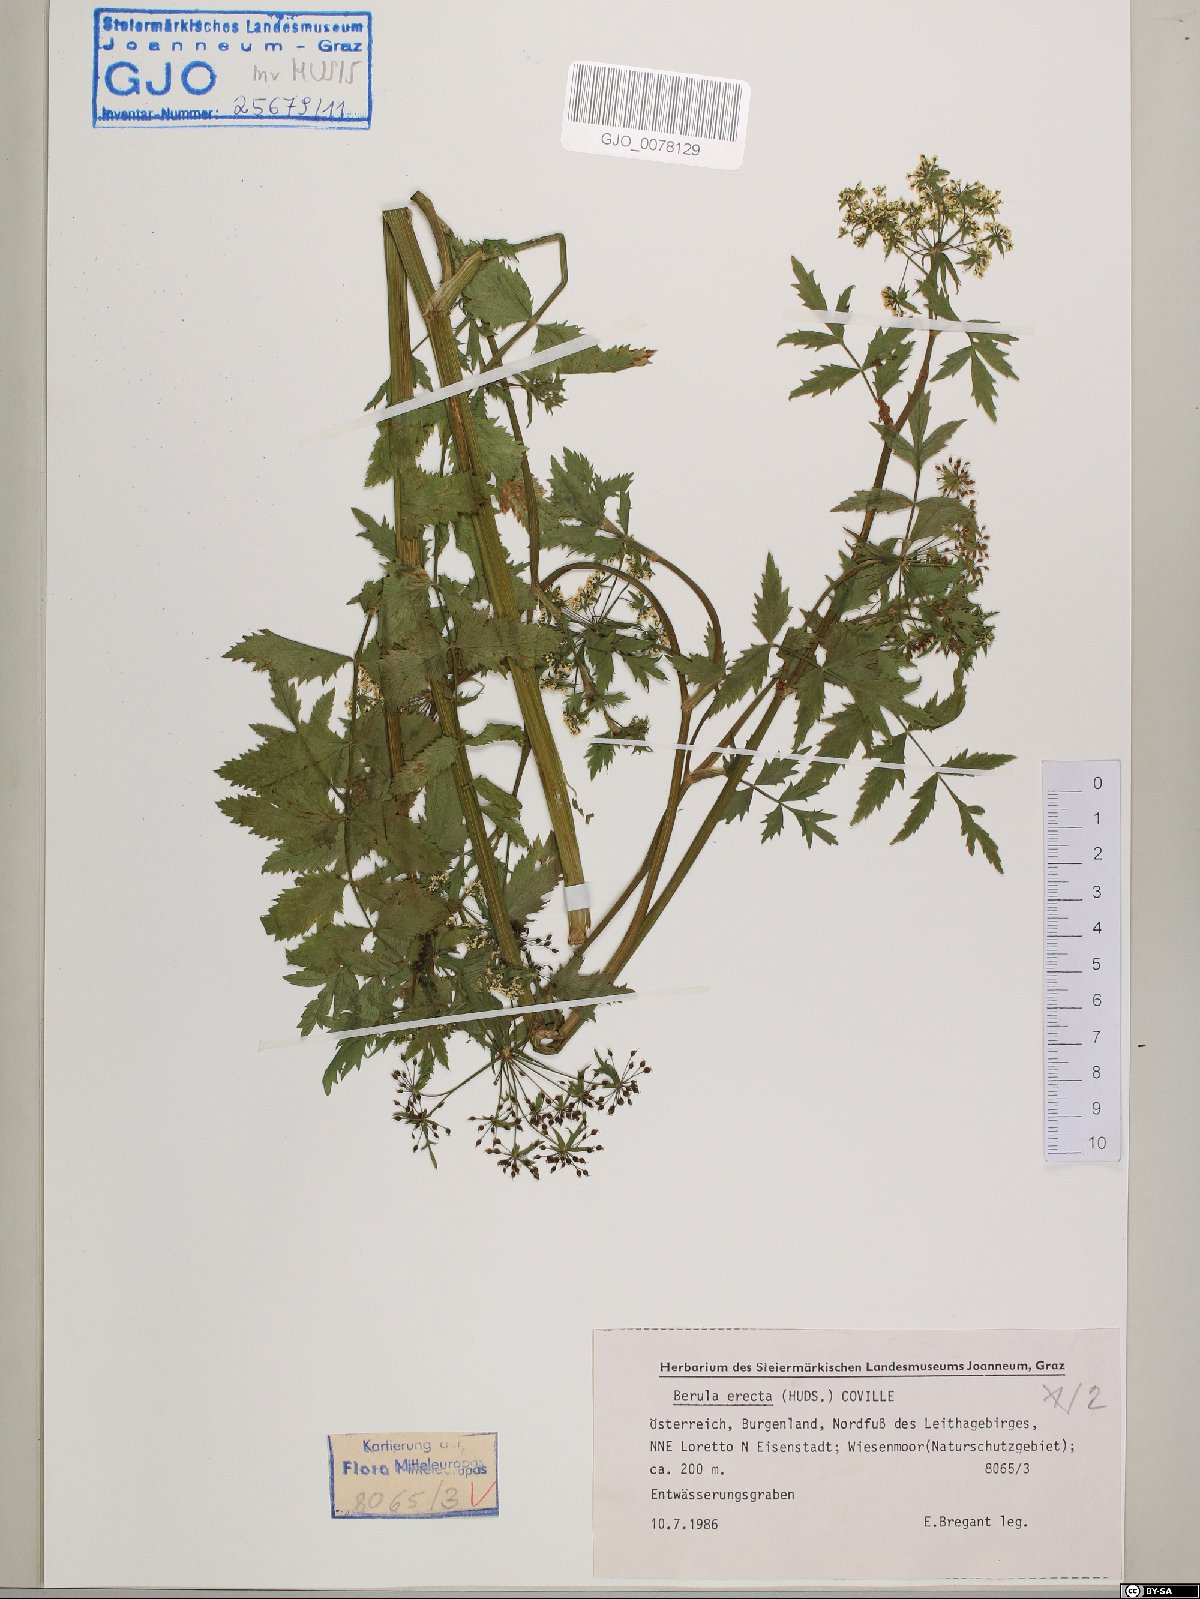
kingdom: Plantae
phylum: Tracheophyta
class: Magnoliopsida
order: Apiales
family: Apiaceae
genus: Berula
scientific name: Berula erecta
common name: Lesser water-parsnip
